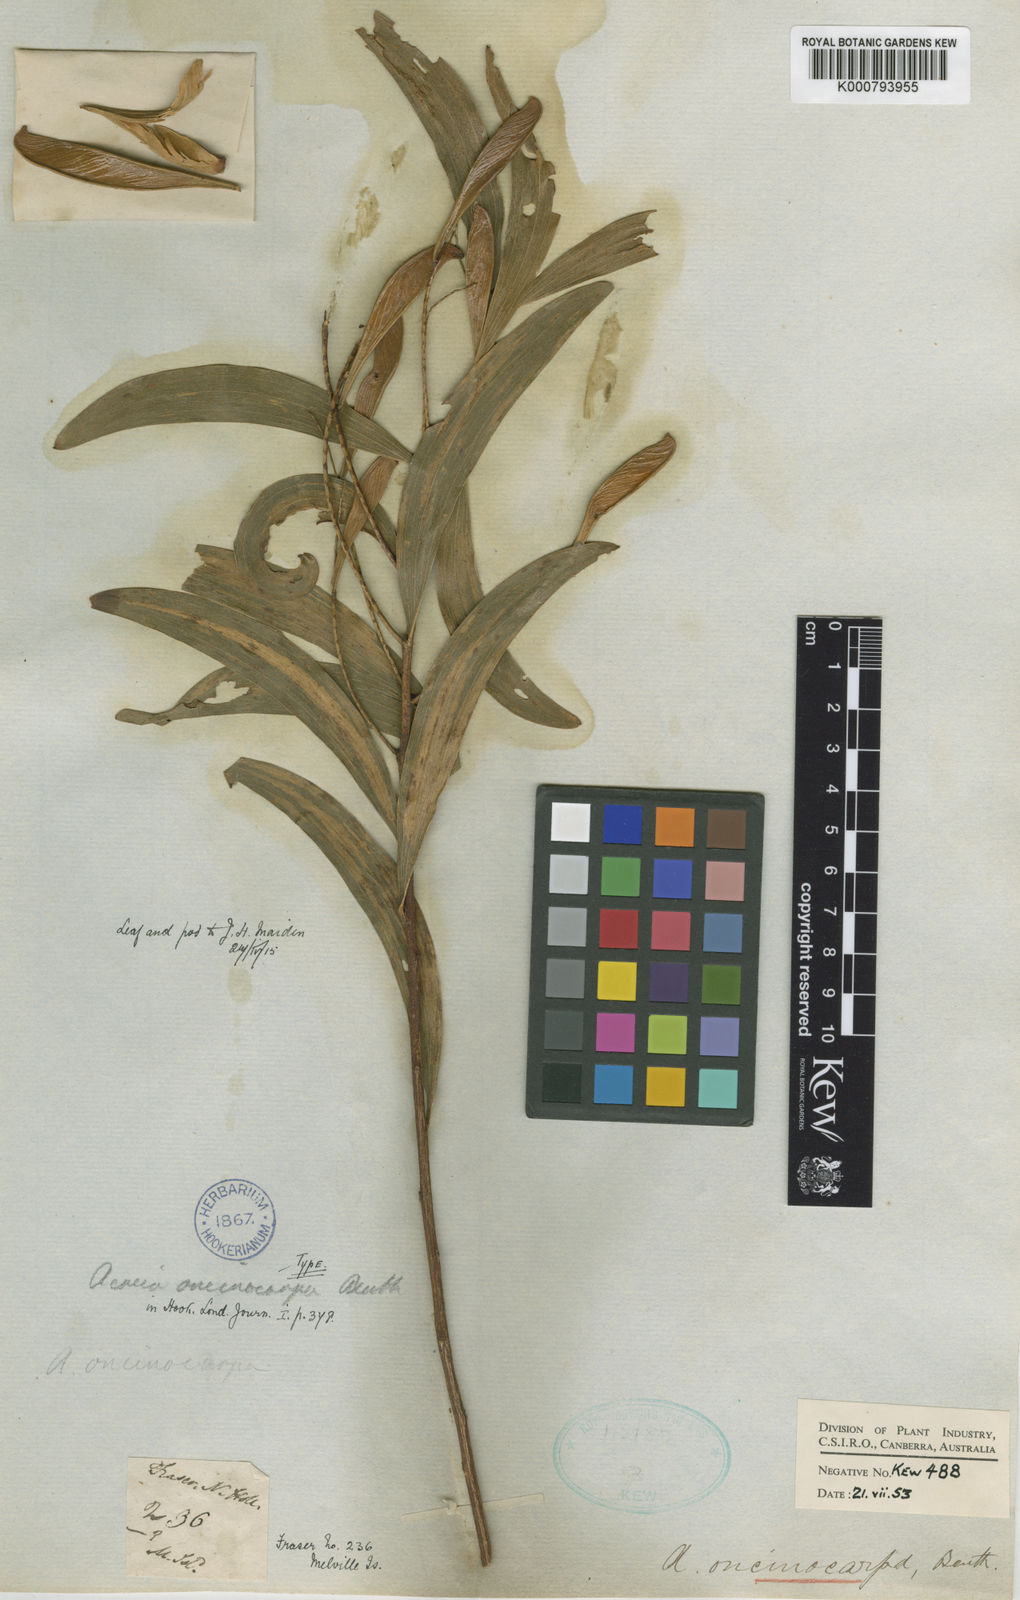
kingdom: Plantae
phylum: Tracheophyta
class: Magnoliopsida
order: Fabales
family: Fabaceae
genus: Acacia
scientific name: Acacia oncinocarpa
